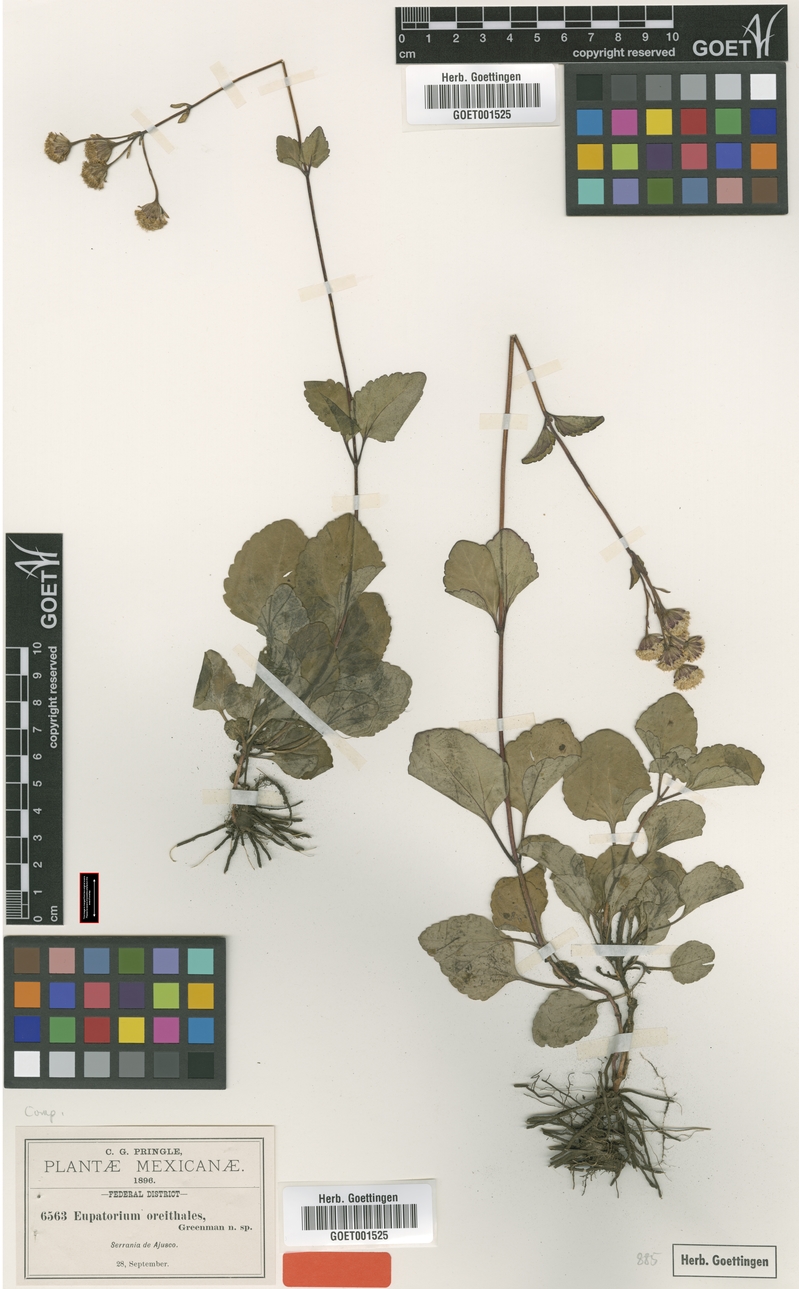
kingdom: Plantae
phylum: Tracheophyta
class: Magnoliopsida
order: Asterales
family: Asteraceae
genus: Ageratina
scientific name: Ageratina oreithales
